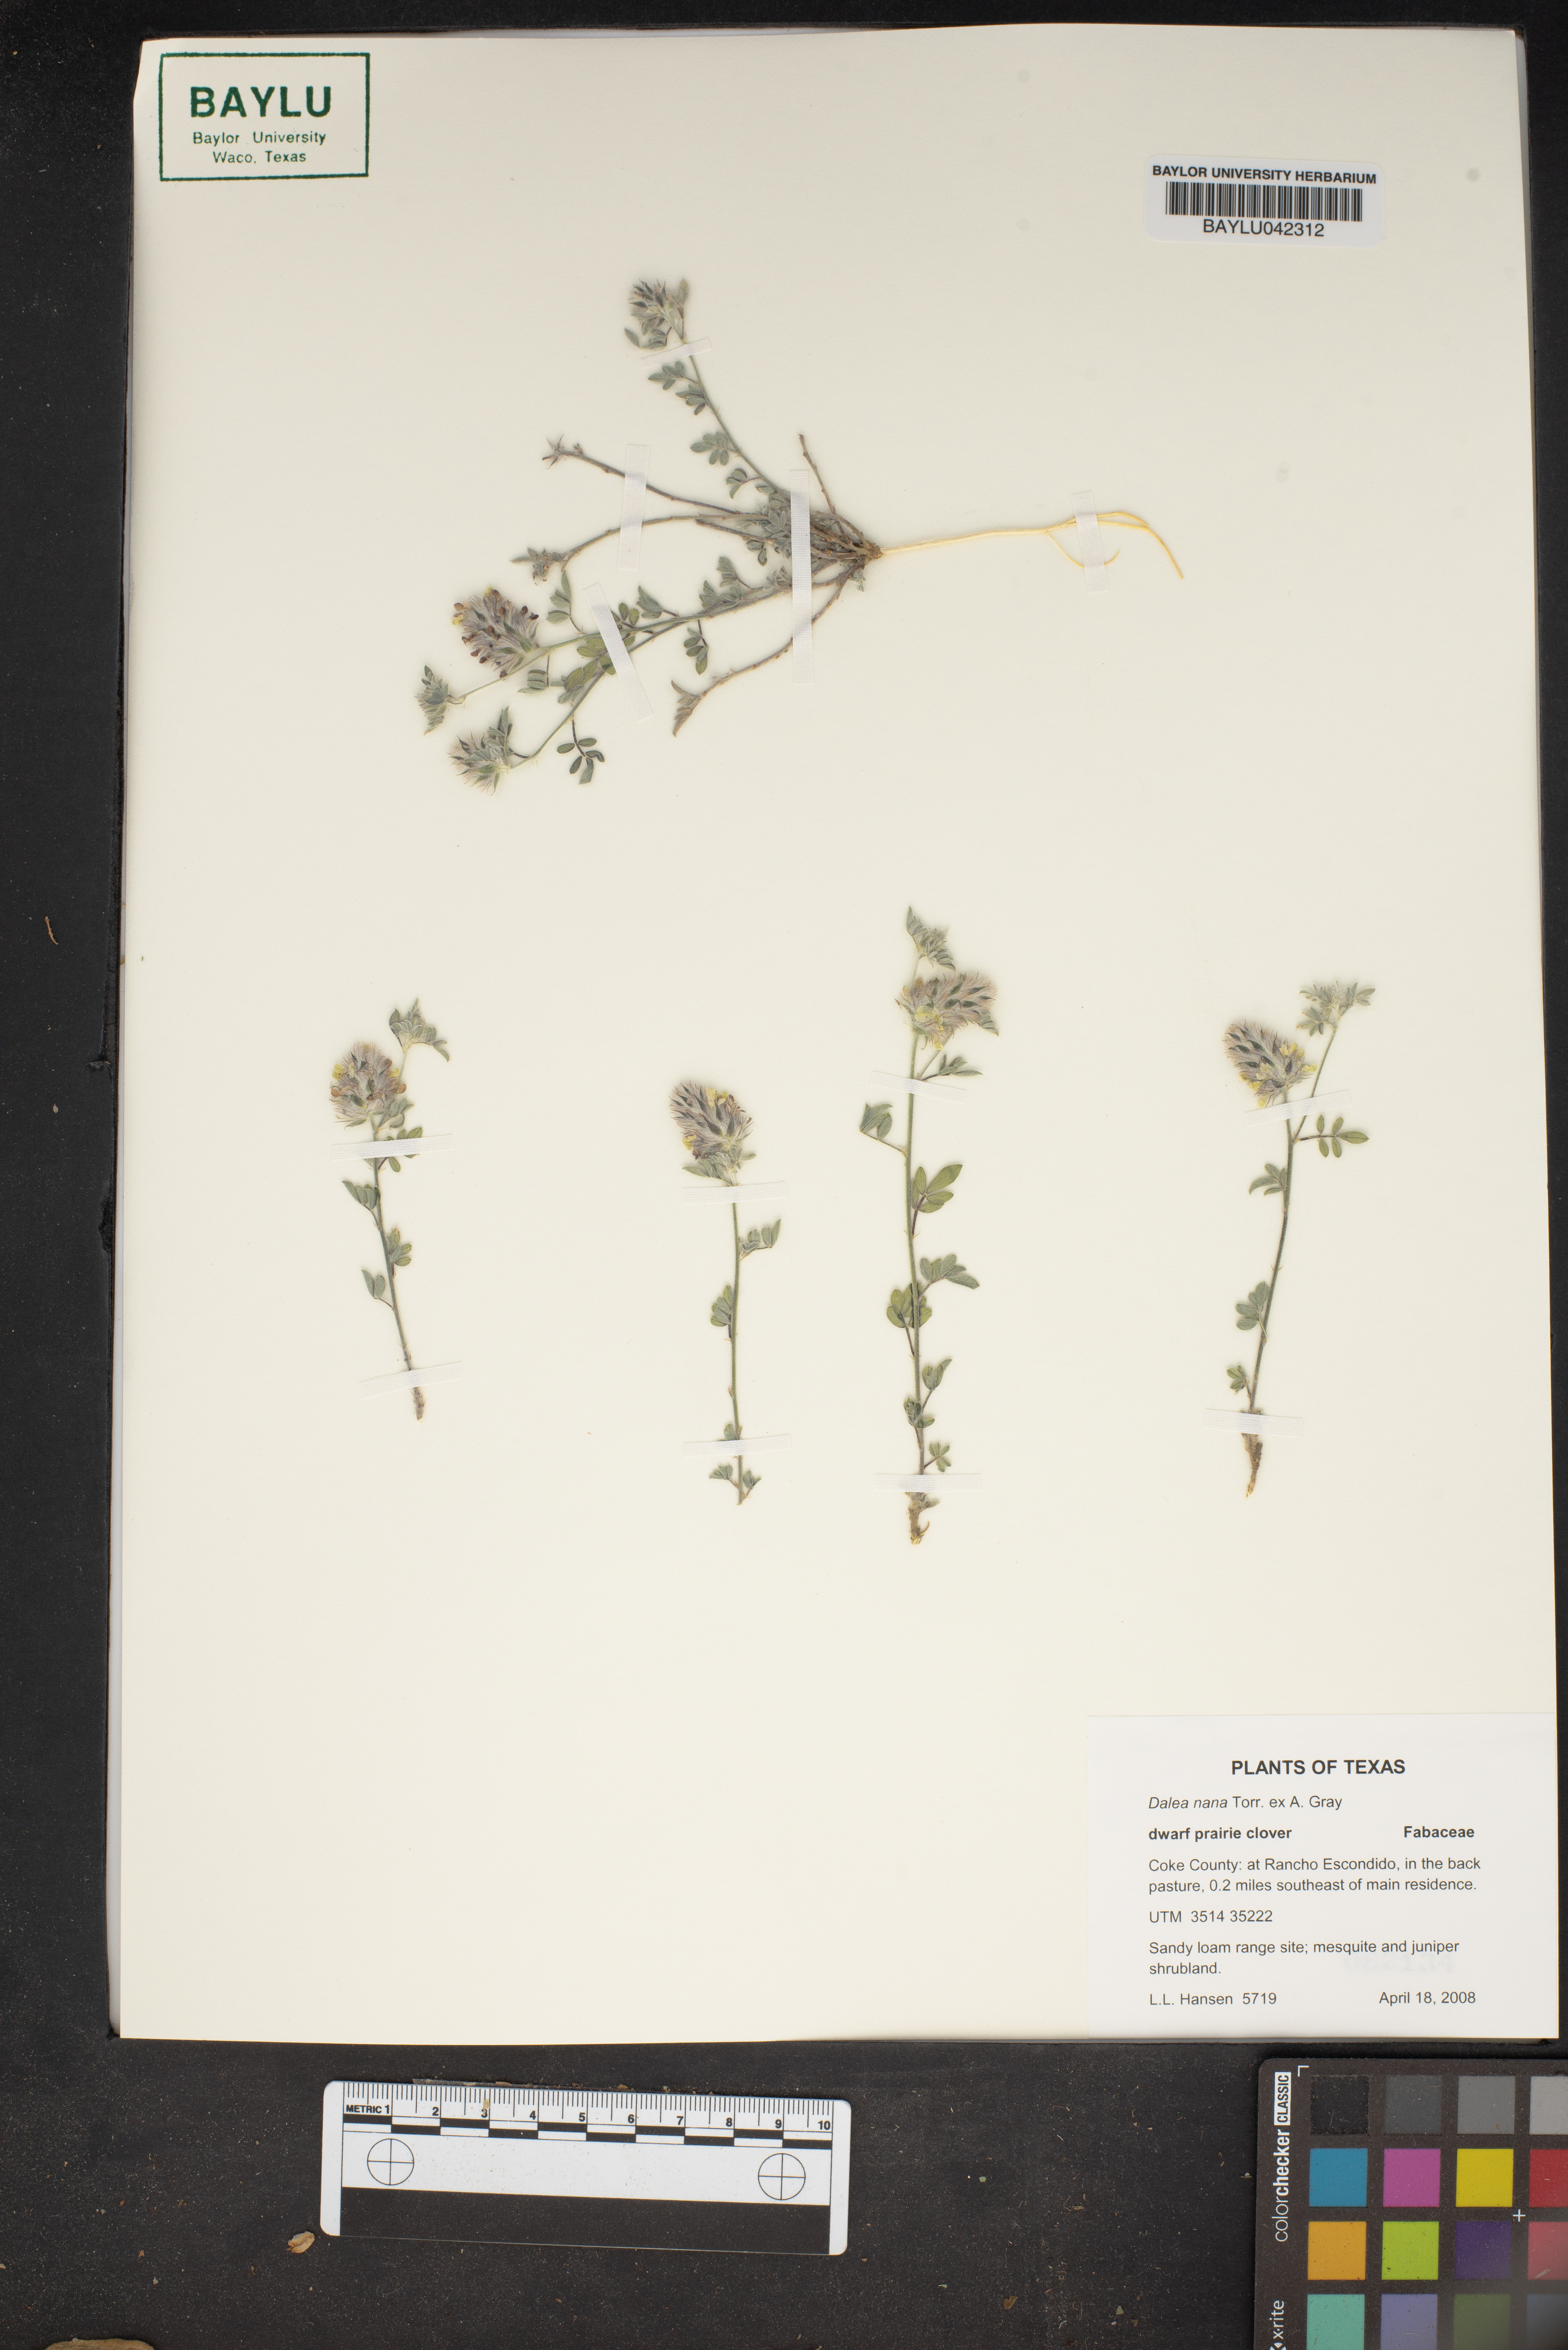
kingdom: Plantae
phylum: Tracheophyta
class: Magnoliopsida
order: Fabales
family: Fabaceae
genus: Dalea
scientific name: Dalea nana
